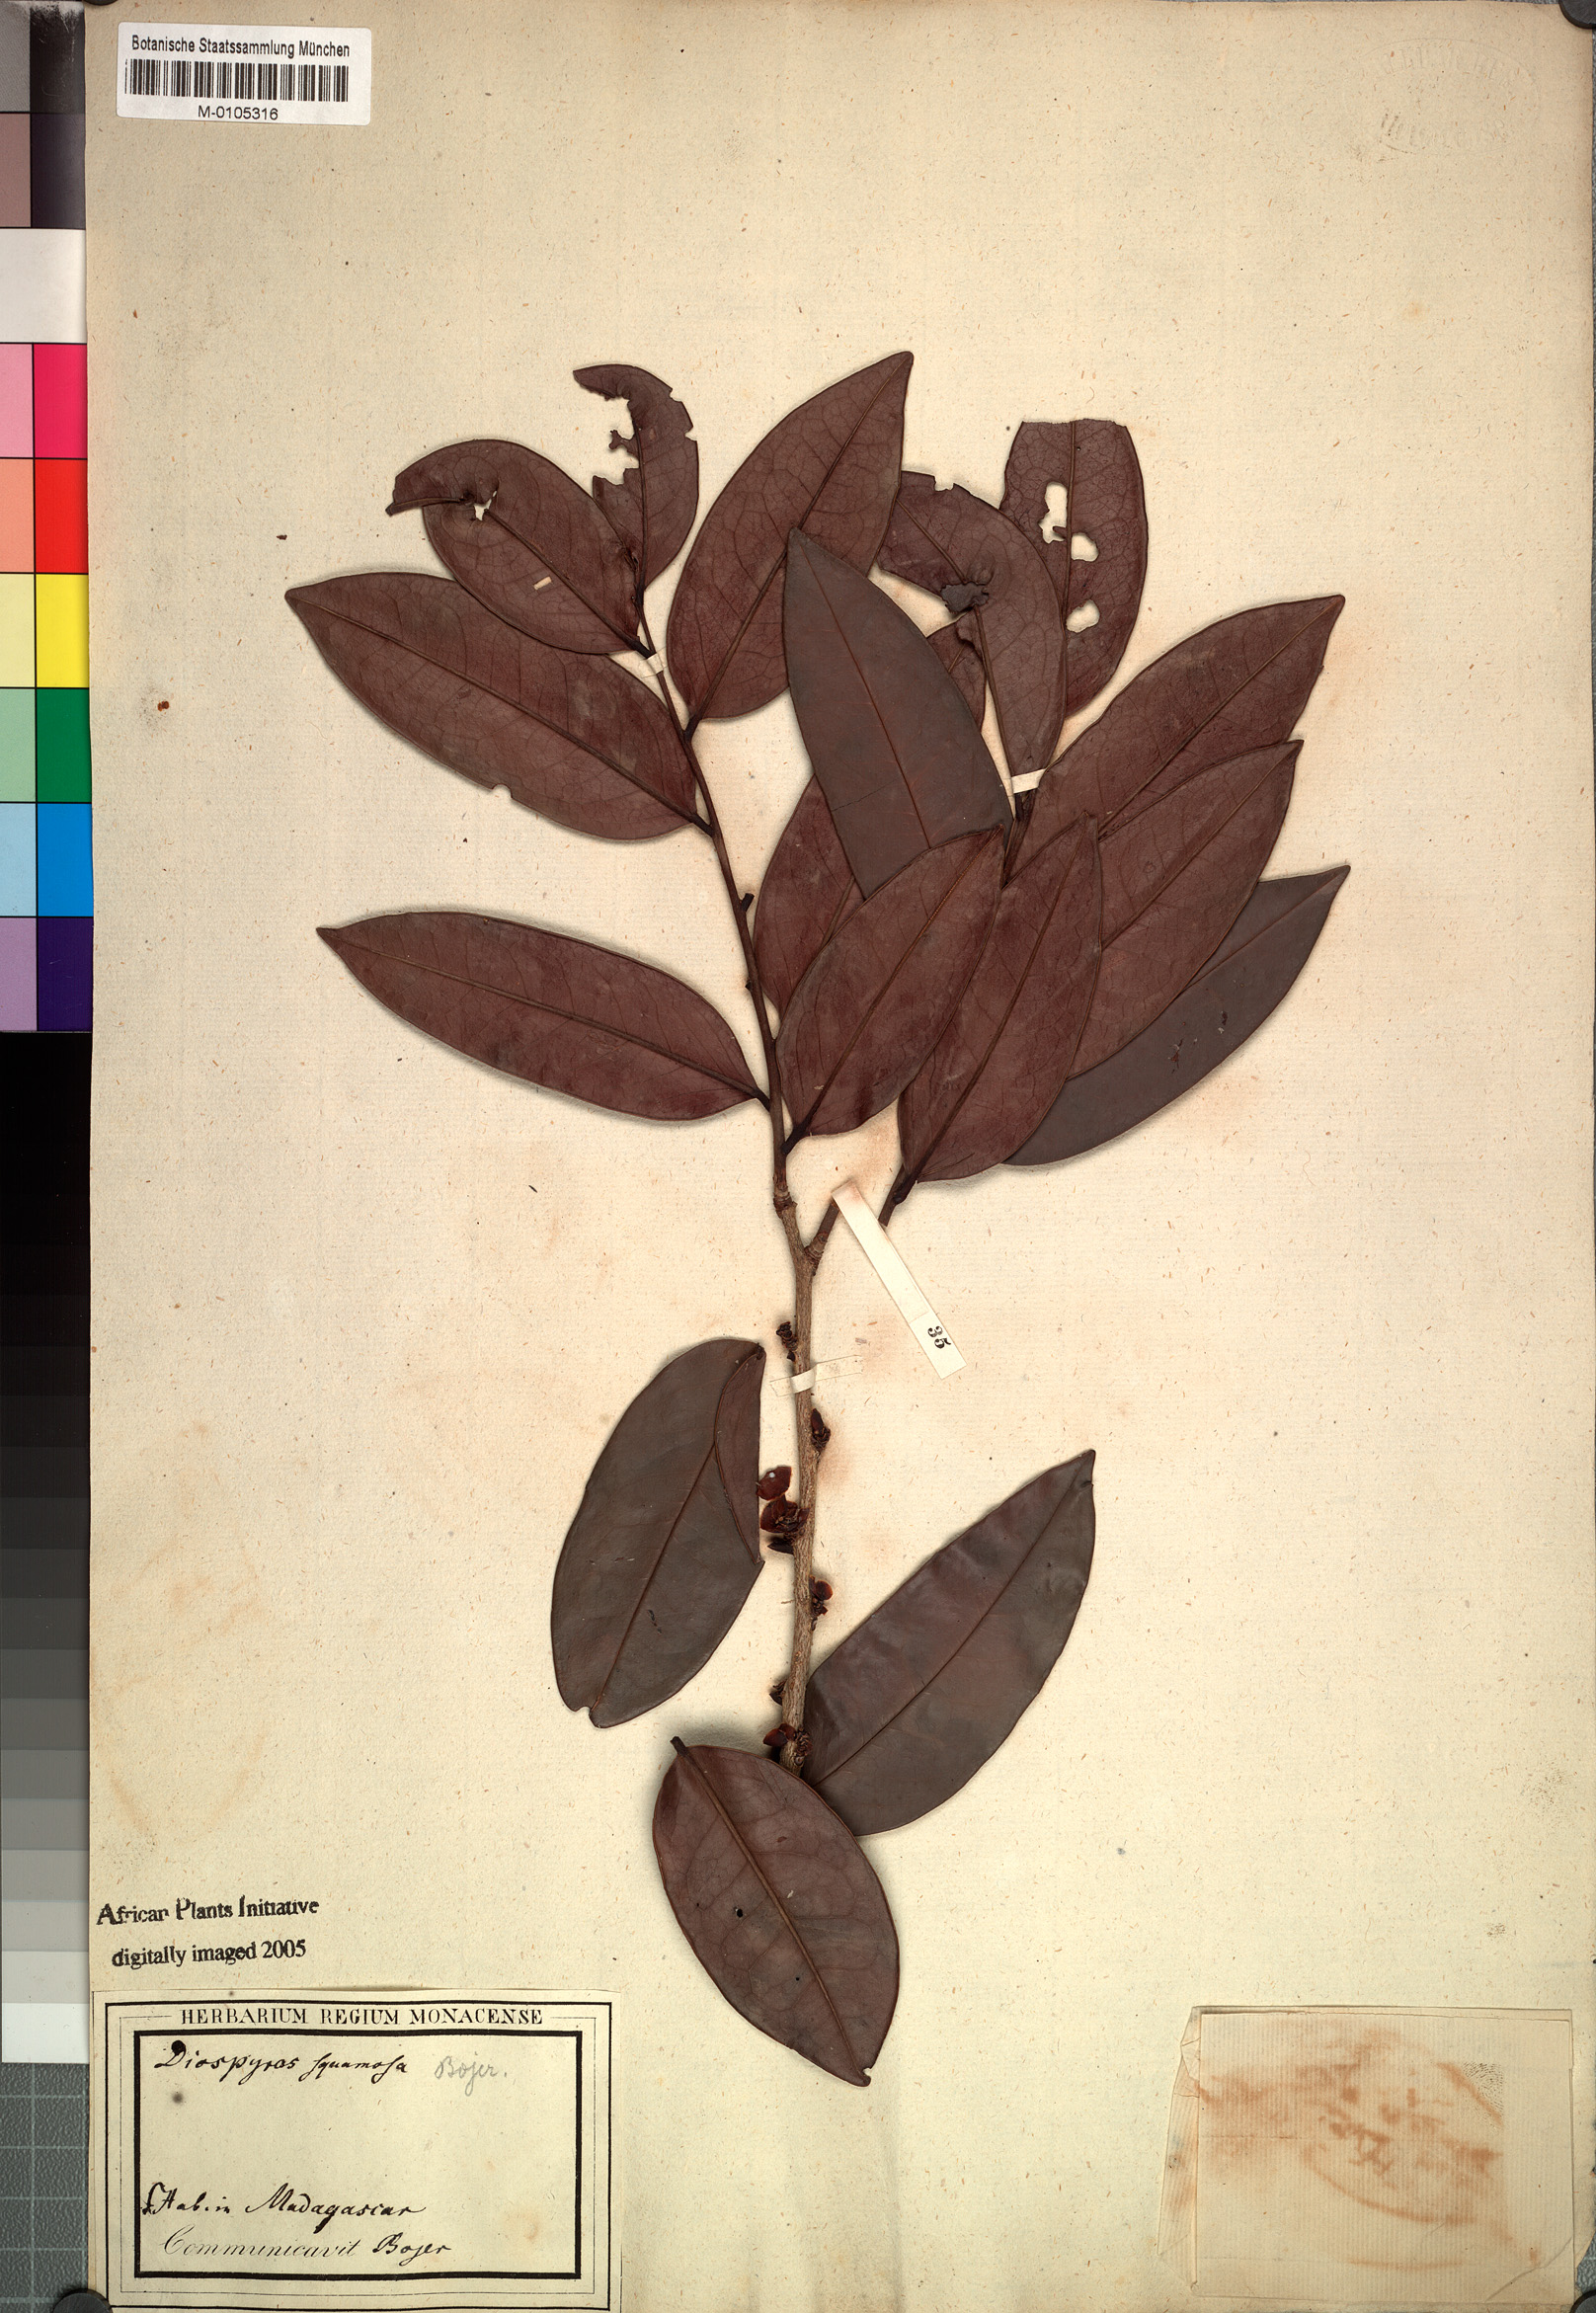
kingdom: Plantae
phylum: Tracheophyta
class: Magnoliopsida
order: Ericales
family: Ebenaceae
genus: Diospyros
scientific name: Diospyros squamosa
